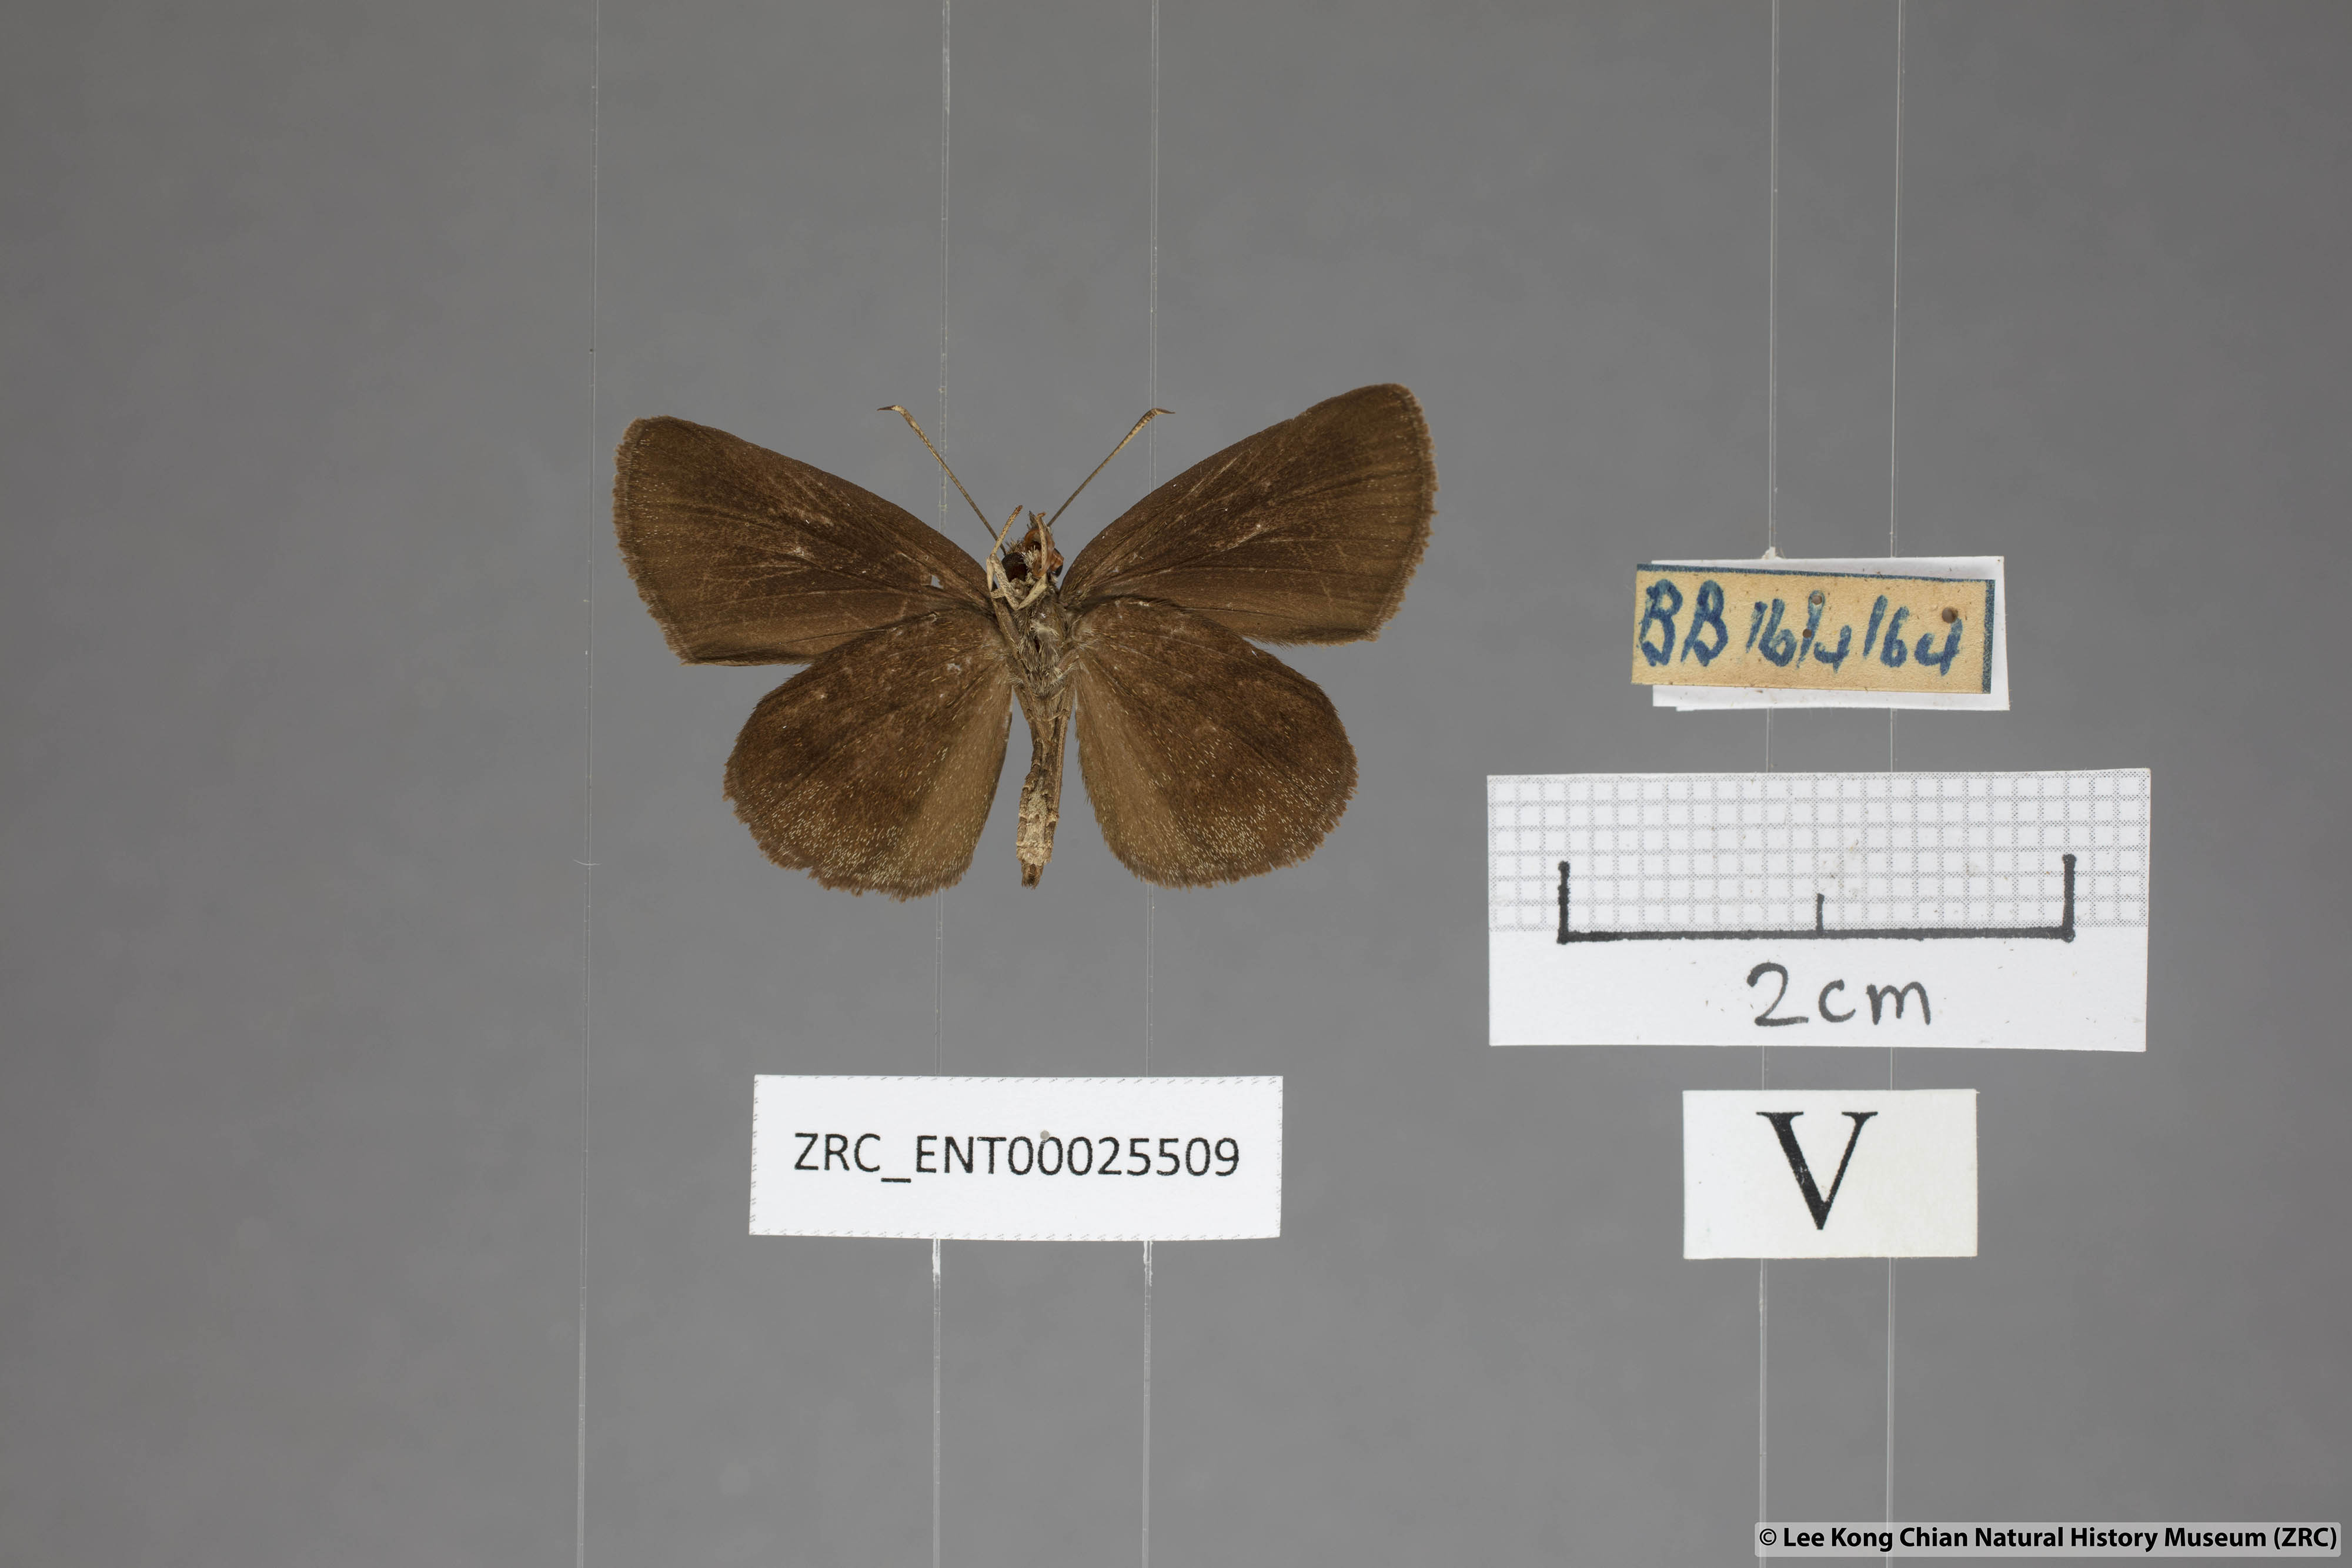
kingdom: Animalia
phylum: Arthropoda
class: Insecta
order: Lepidoptera
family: Hesperiidae
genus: Psolos
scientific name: Psolos fuligo
